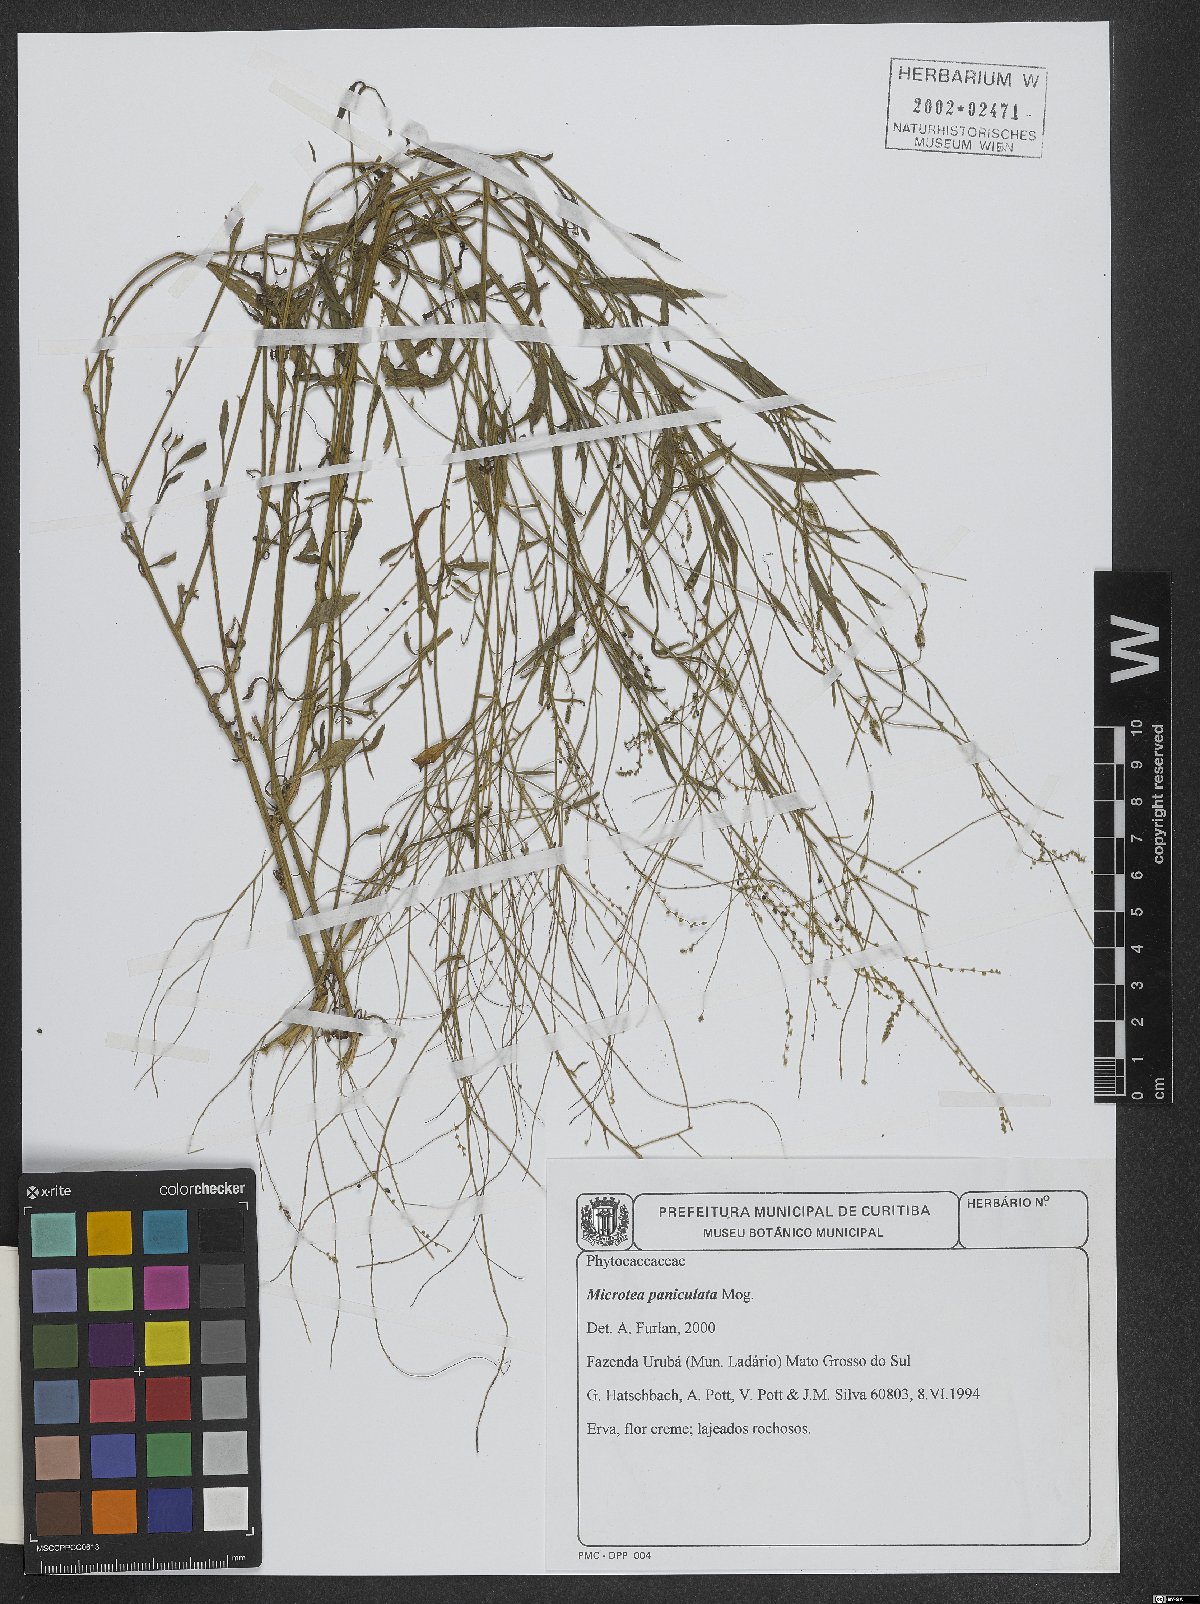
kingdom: Plantae
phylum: Tracheophyta
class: Magnoliopsida
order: Caryophyllales
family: Microteaceae
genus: Microtea
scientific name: Microtea paniculata
